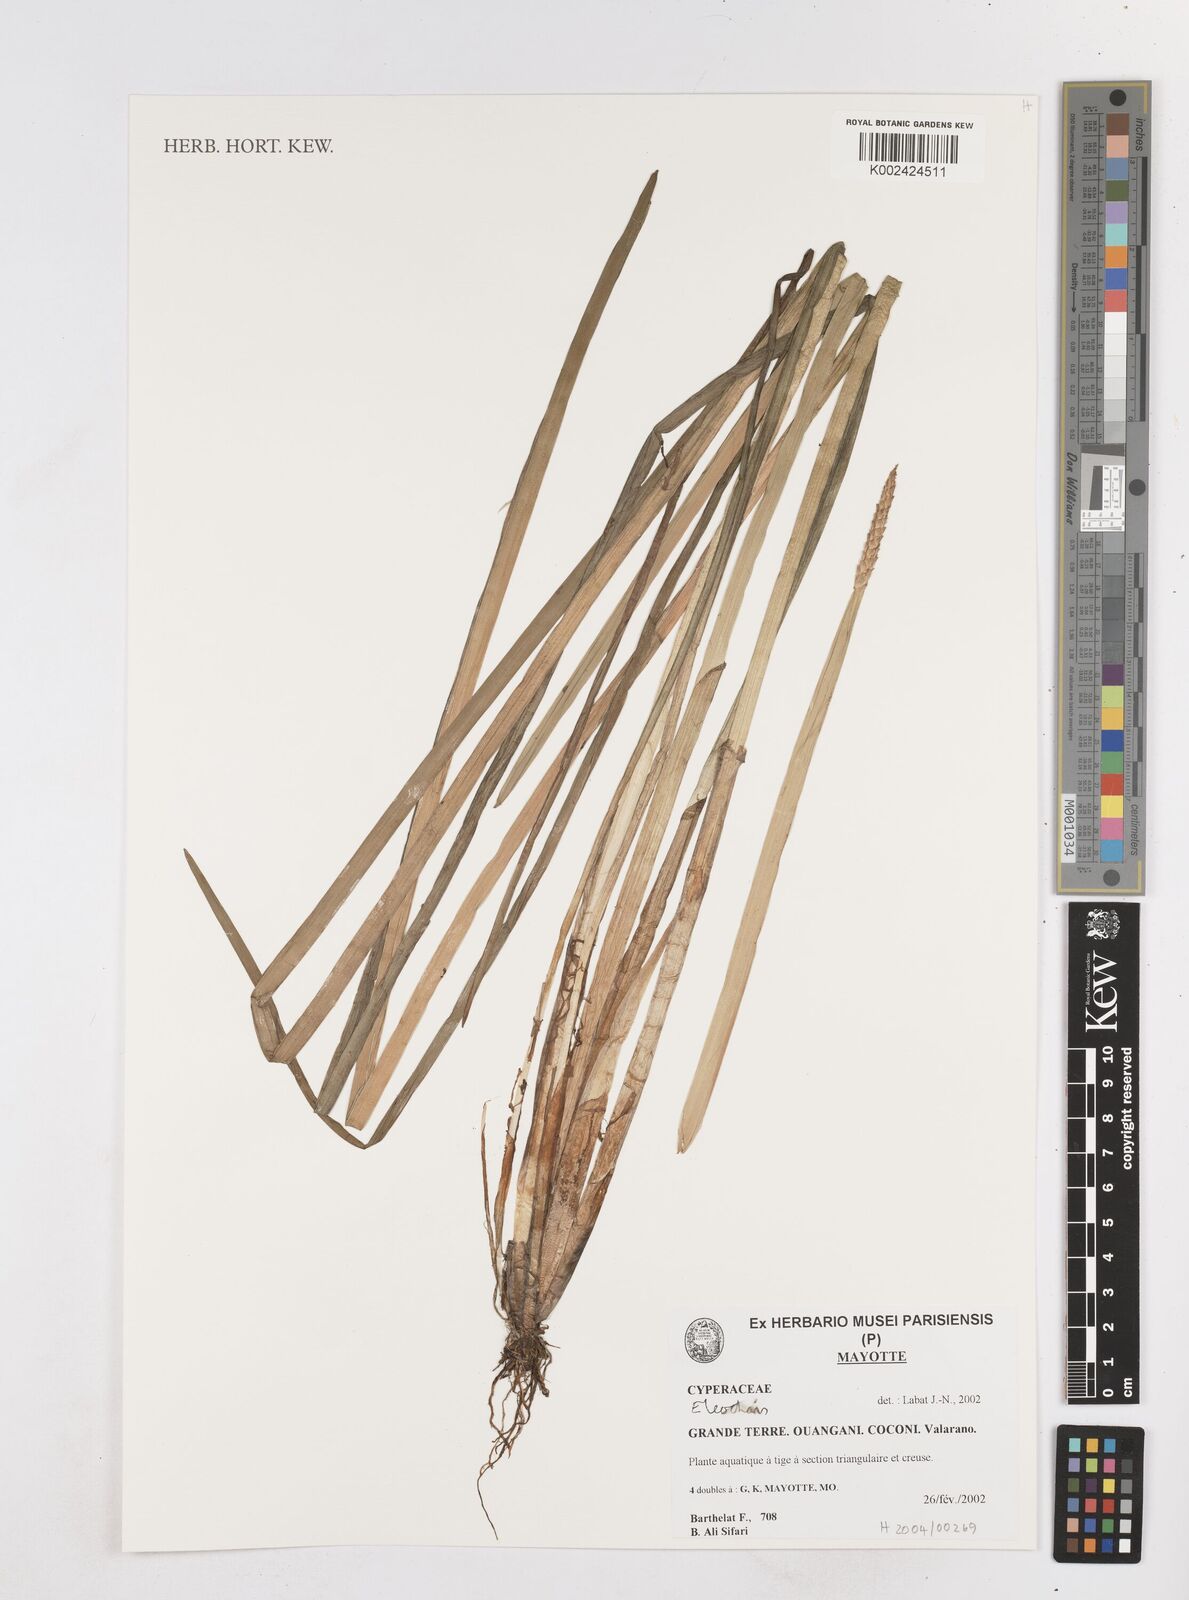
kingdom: Plantae
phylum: Tracheophyta
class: Liliopsida
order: Poales
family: Cyperaceae
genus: Eleocharis
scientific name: Eleocharis
